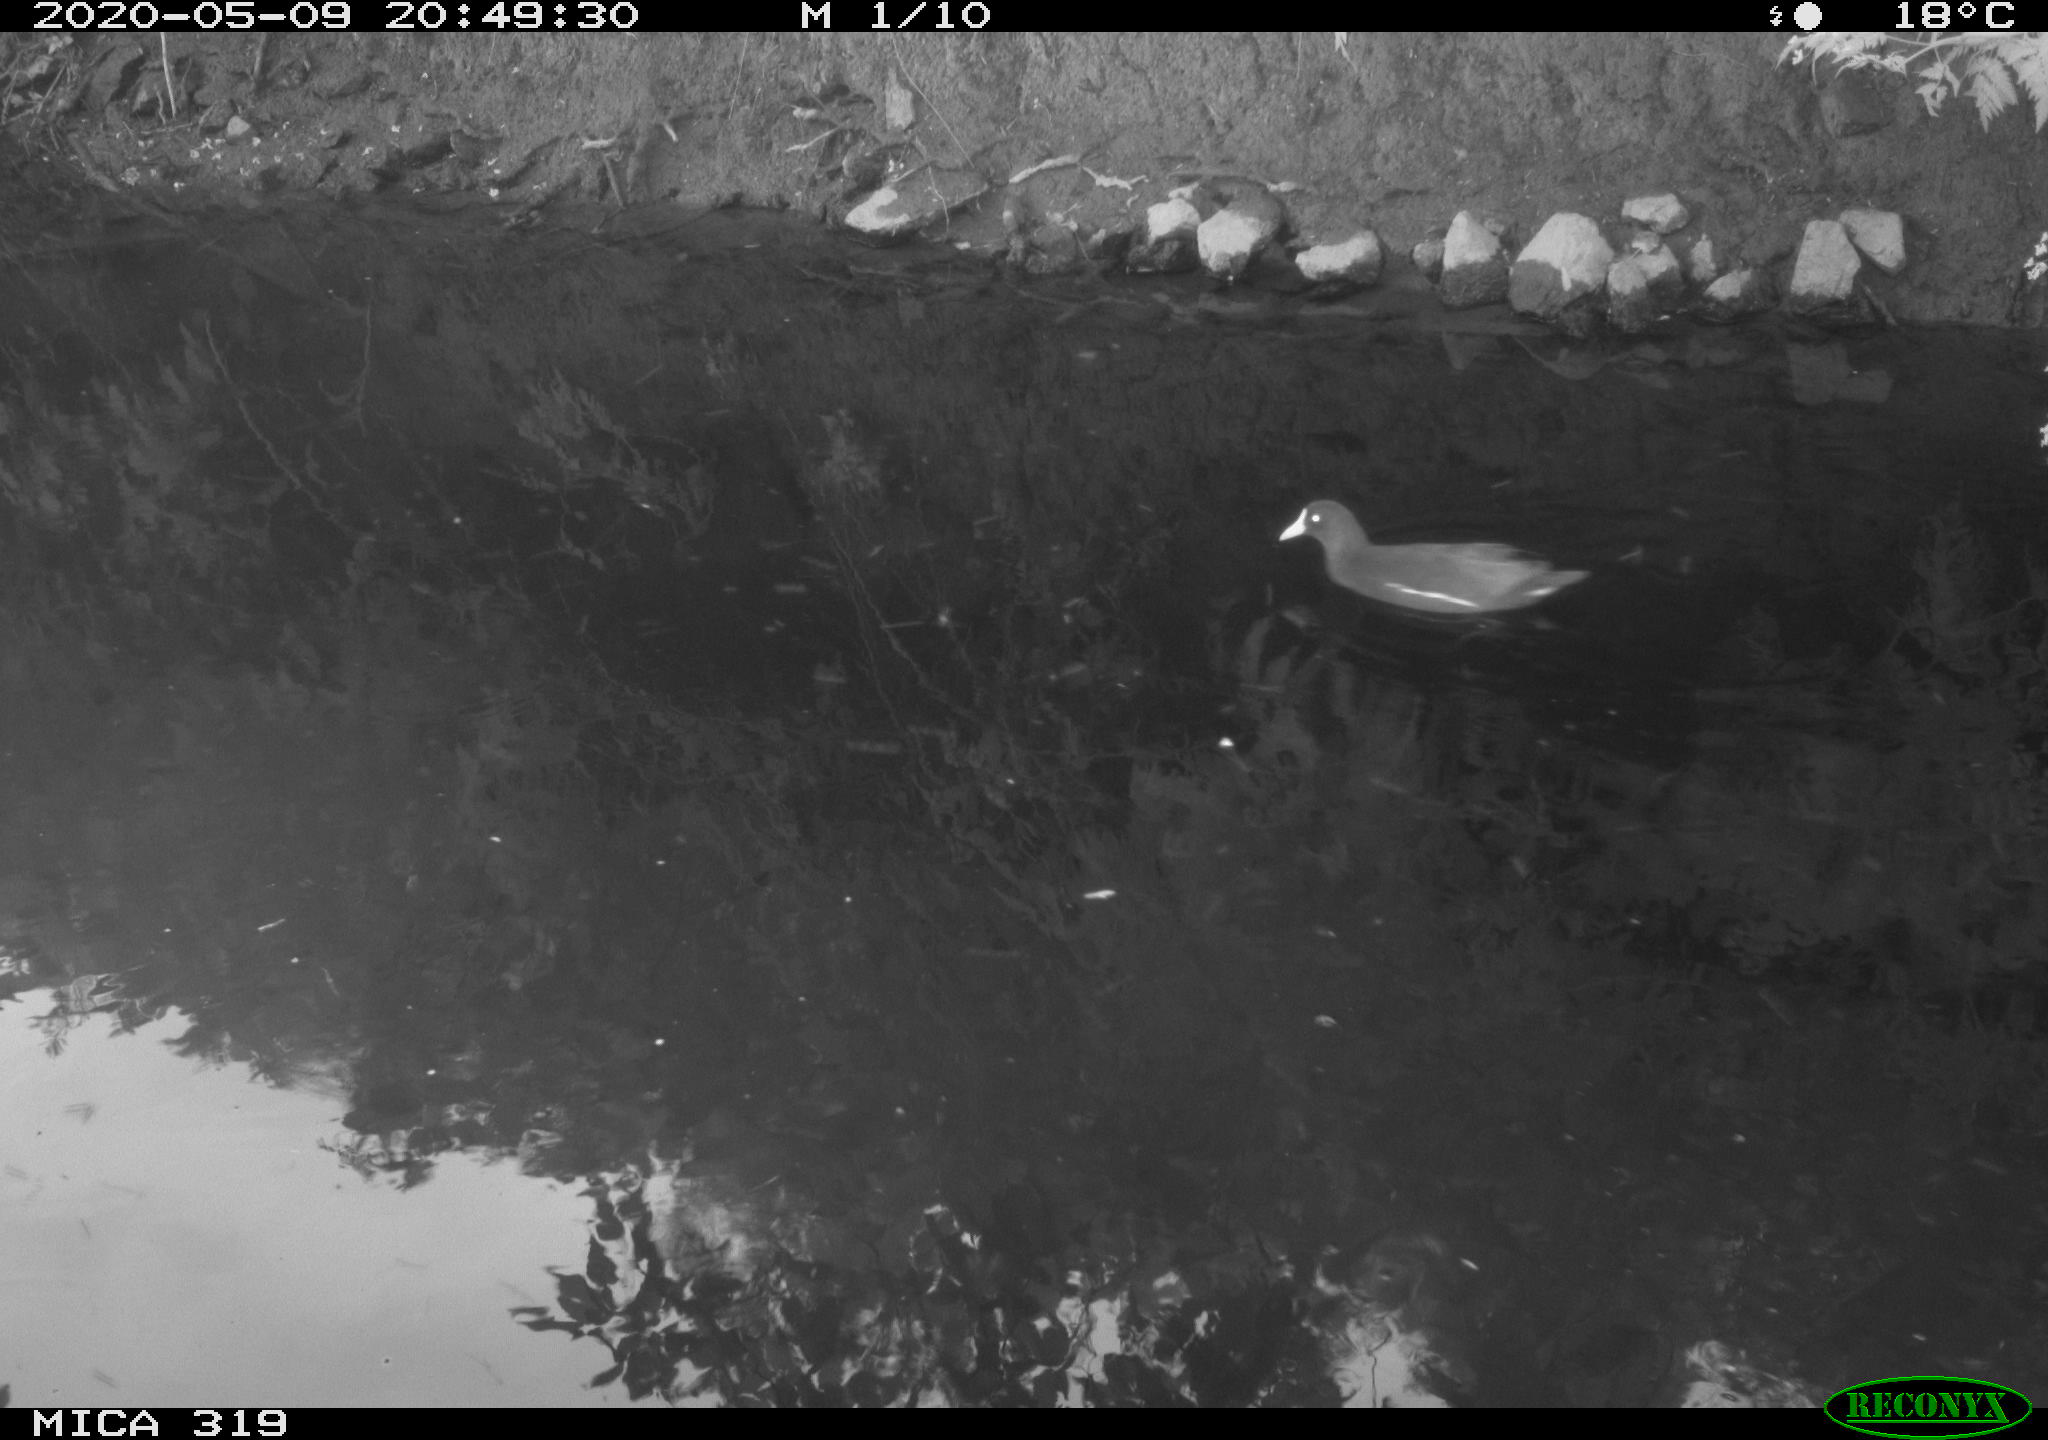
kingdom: Animalia
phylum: Chordata
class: Aves
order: Gruiformes
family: Rallidae
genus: Gallinula
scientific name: Gallinula chloropus
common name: Common moorhen
